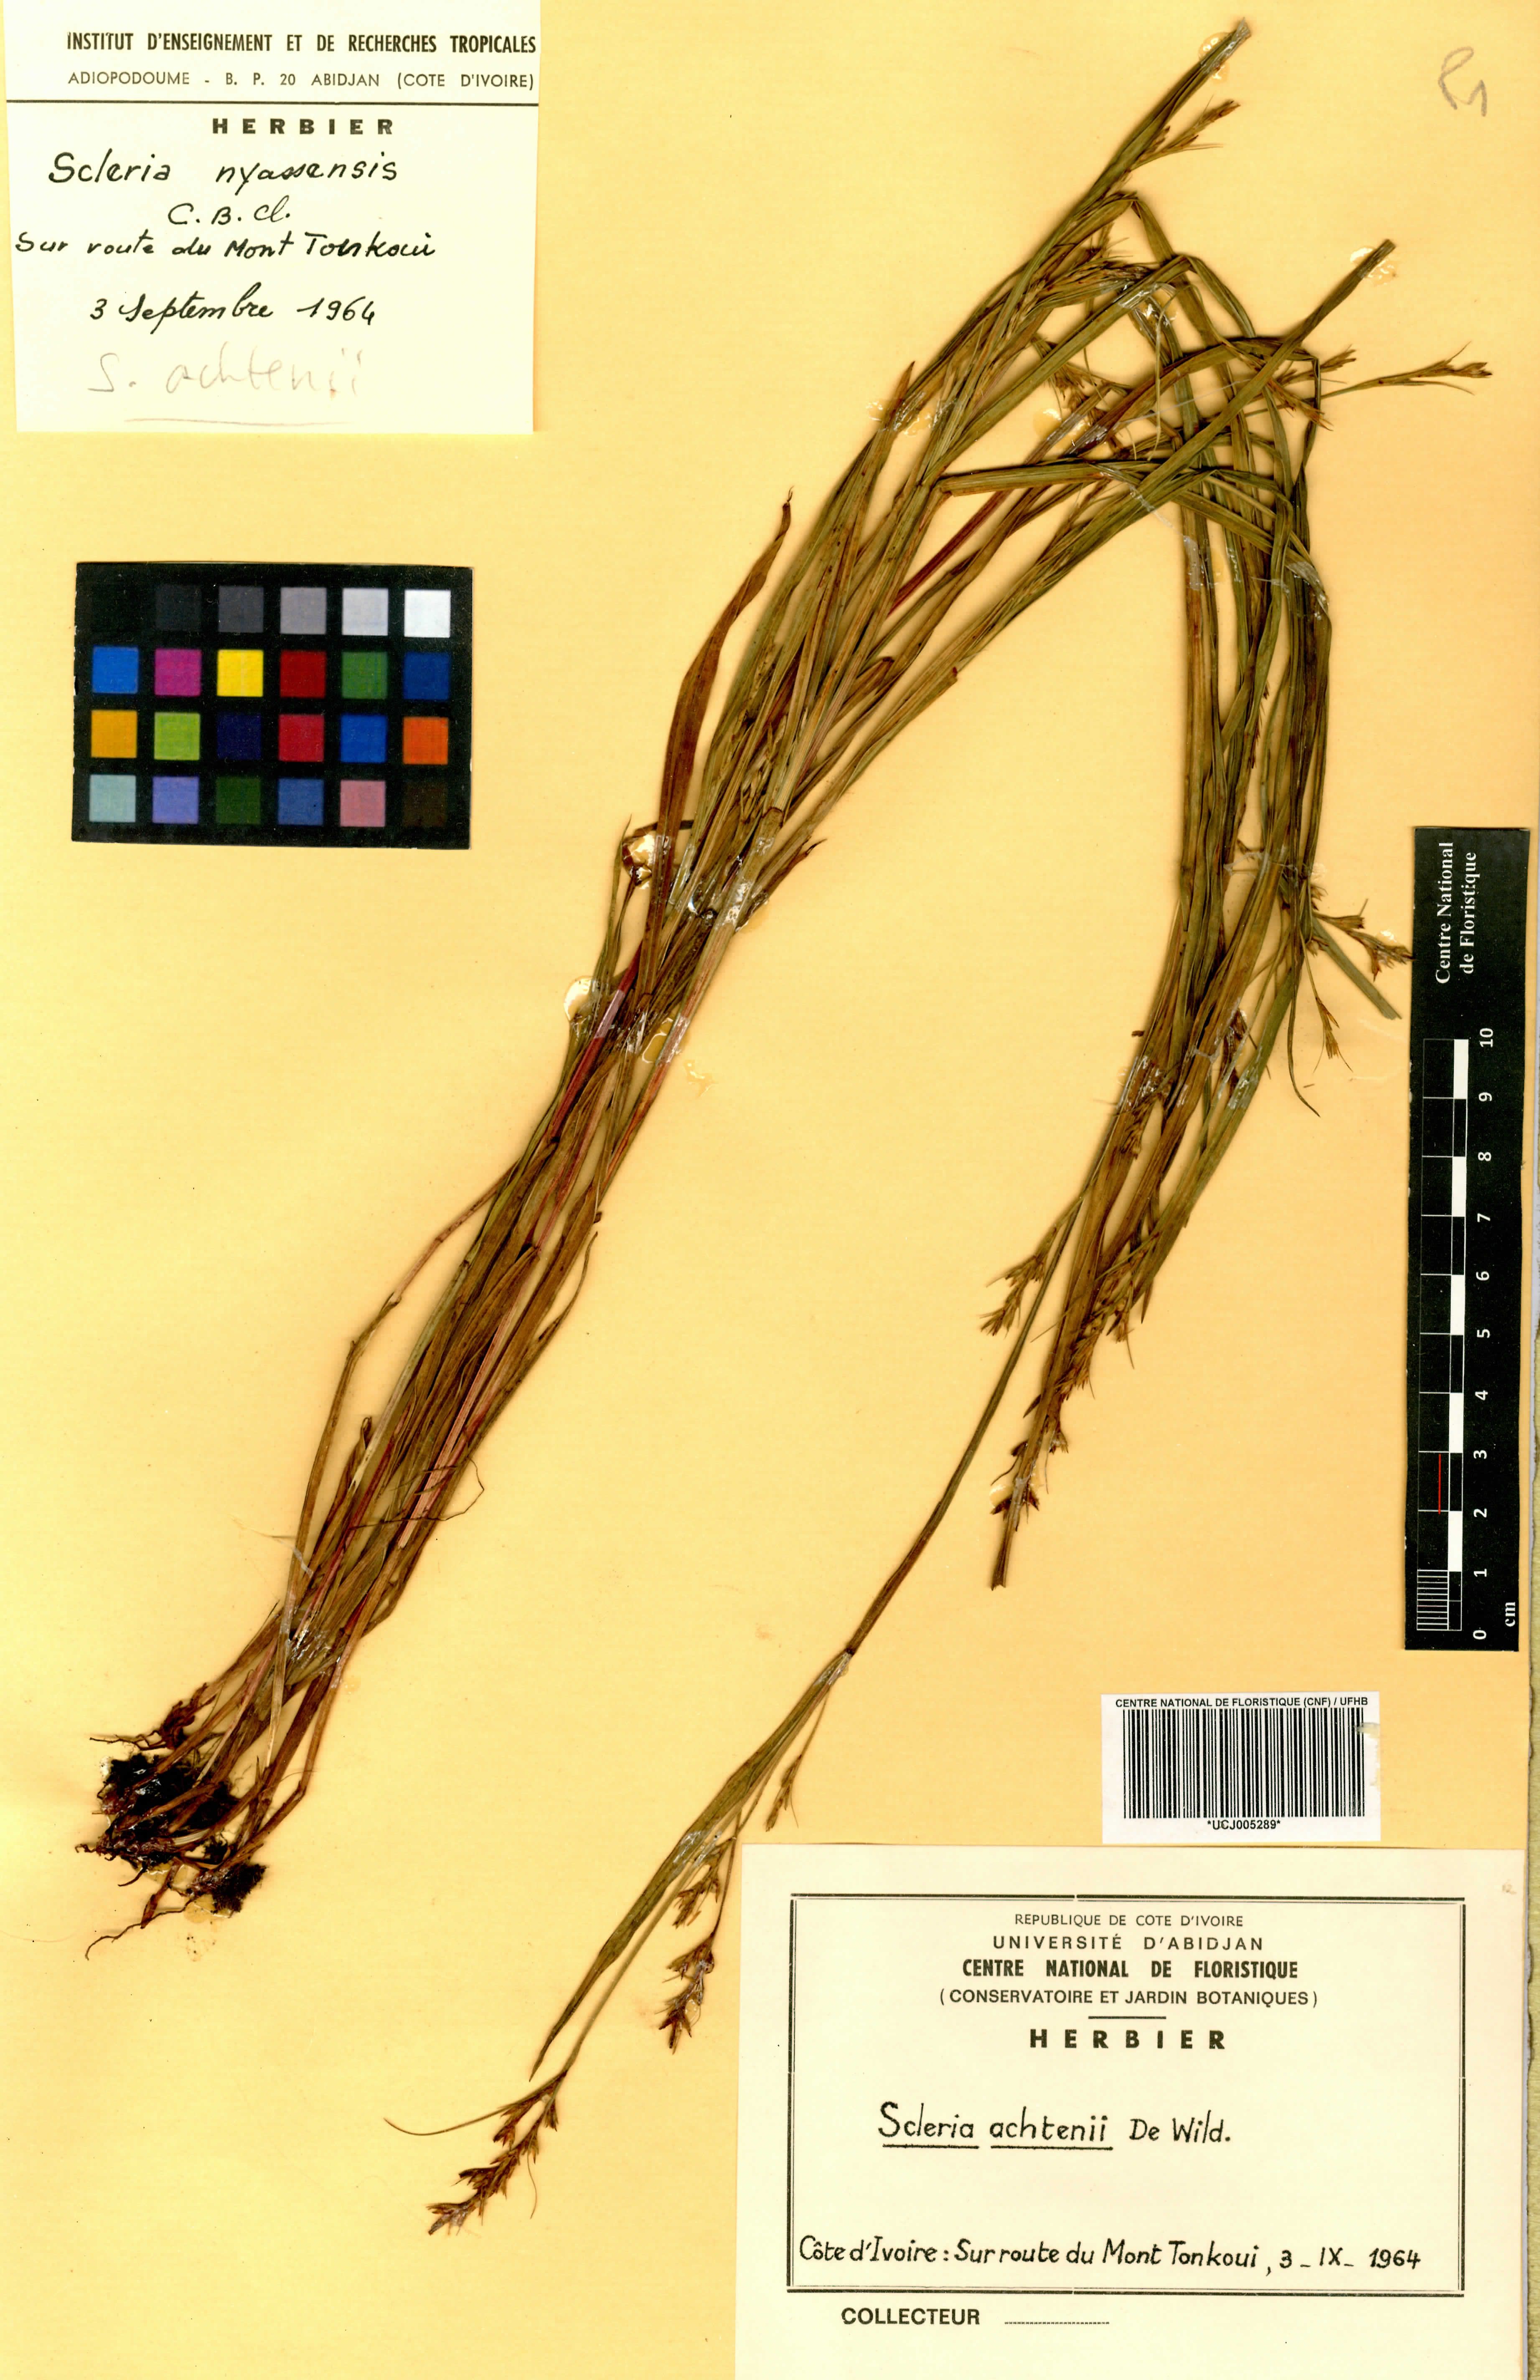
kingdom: Plantae
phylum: Tracheophyta
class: Liliopsida
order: Poales
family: Cyperaceae
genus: Scleria
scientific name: Scleria achtenii
